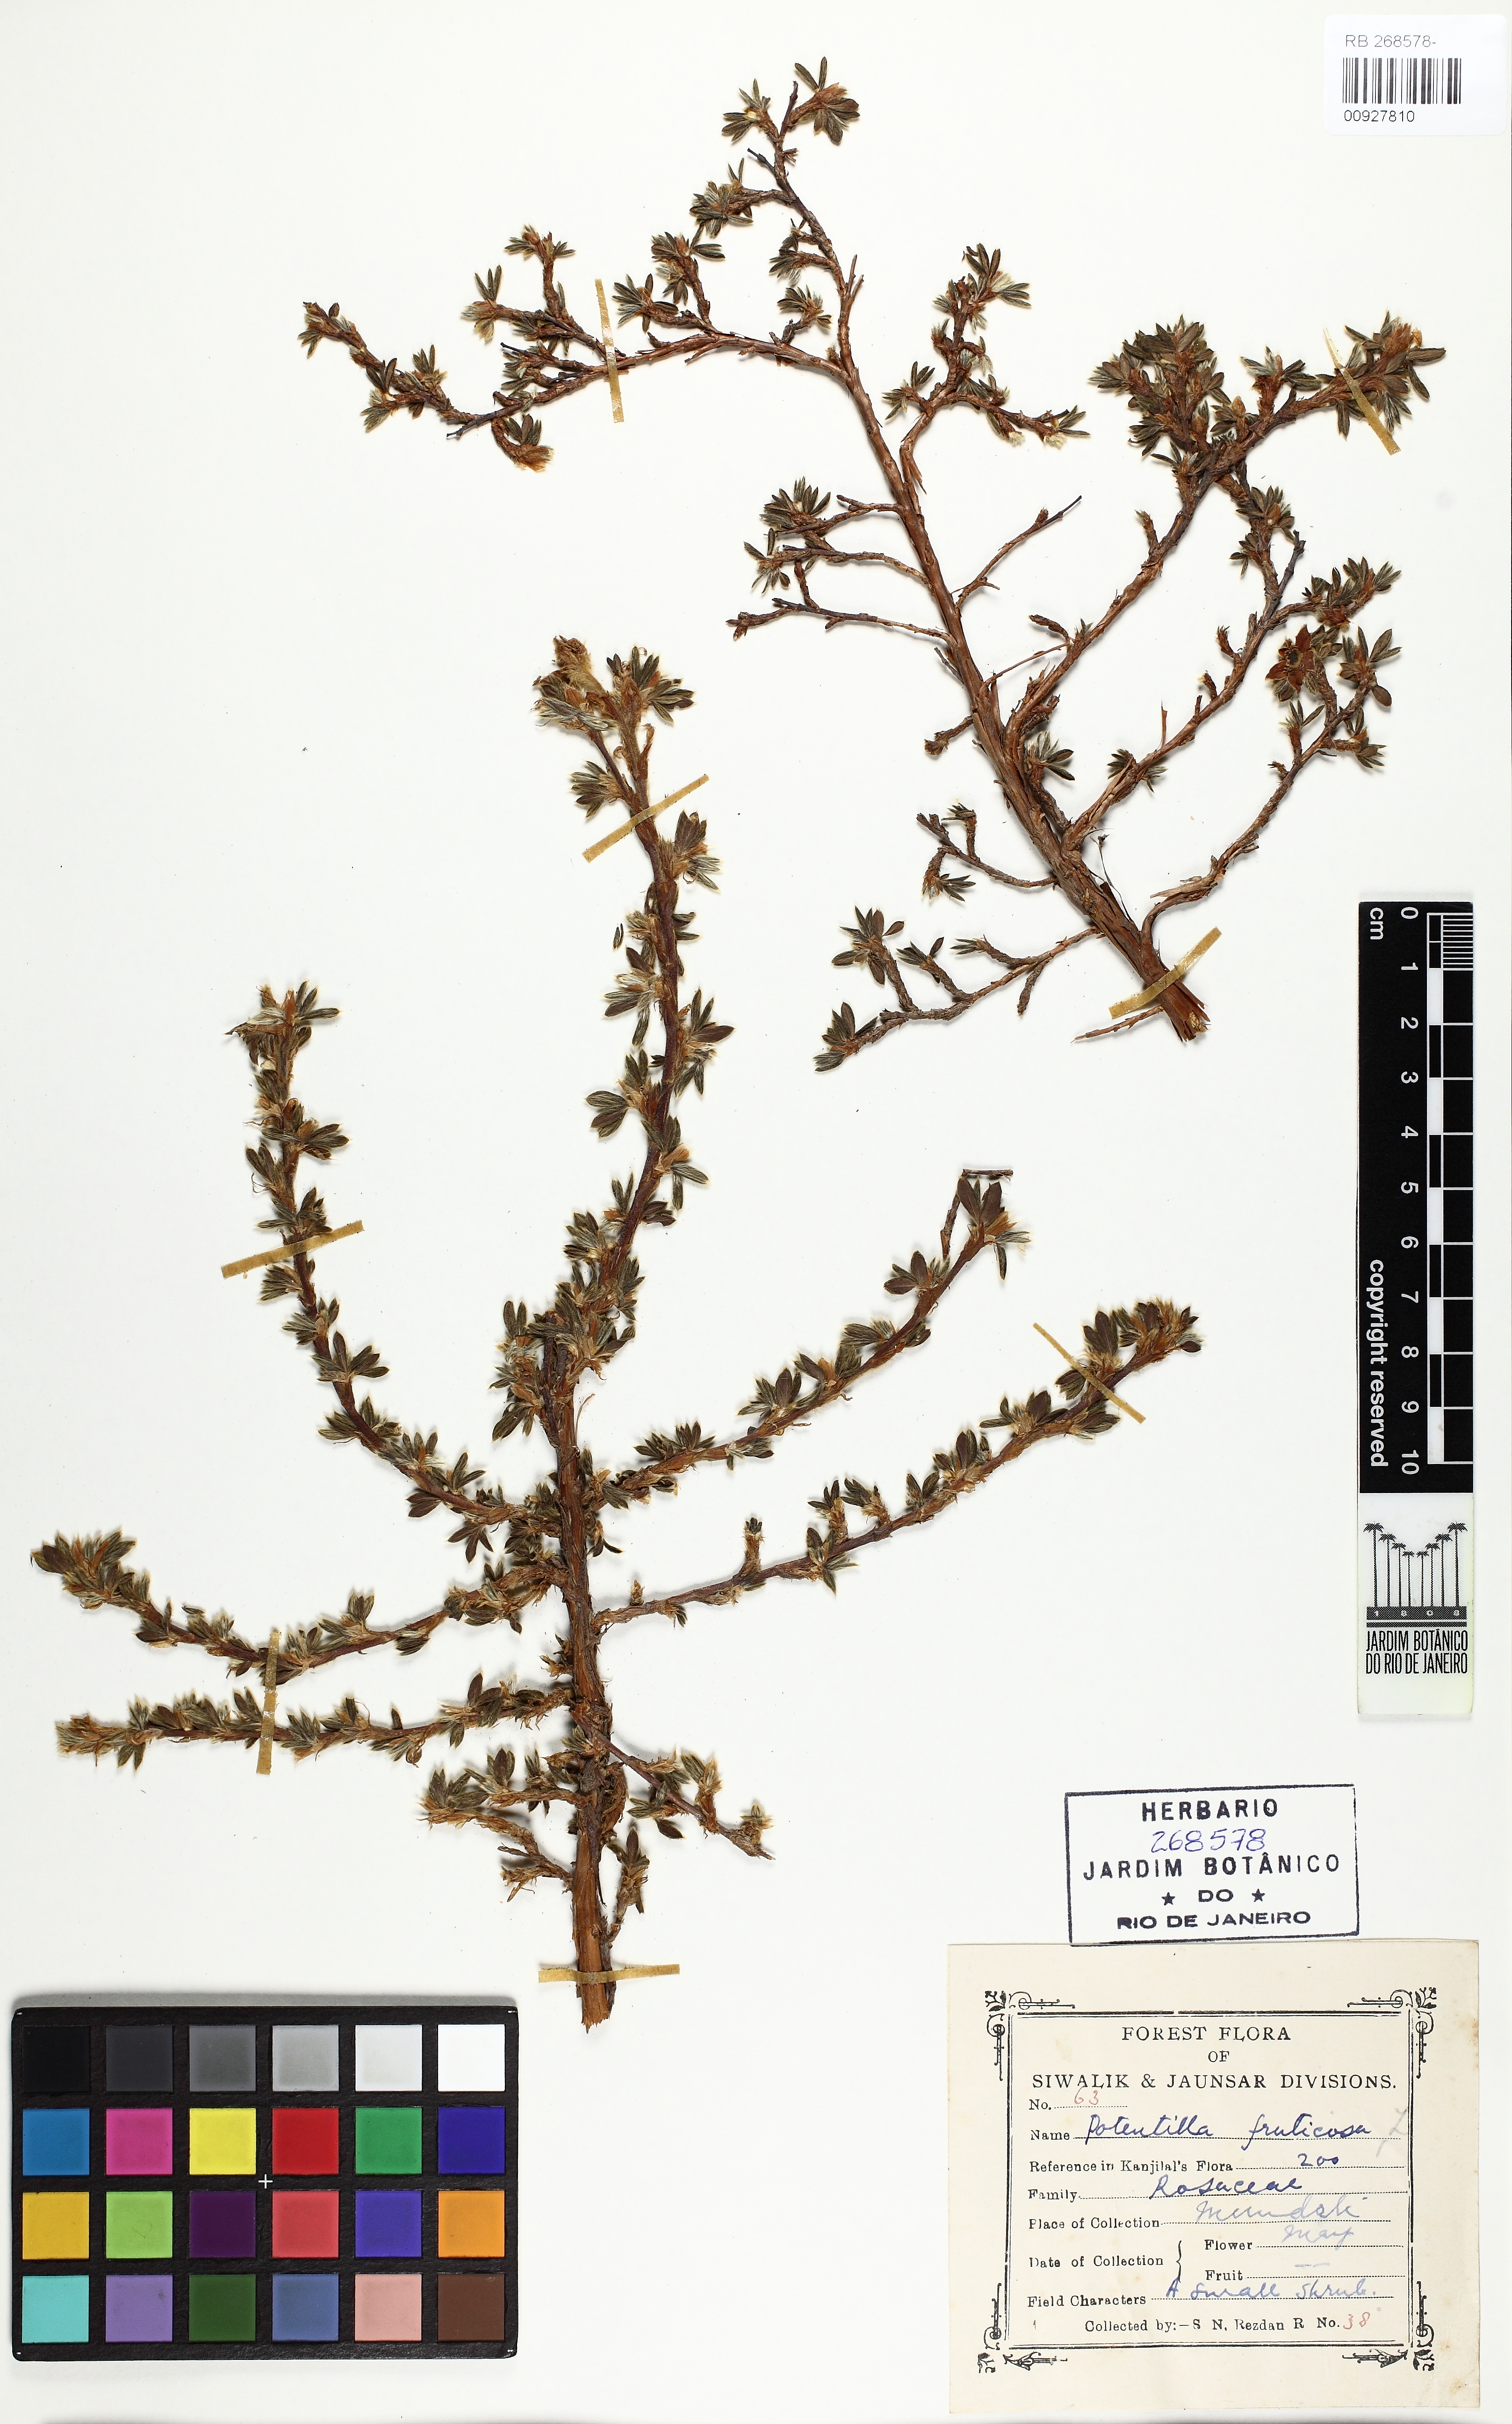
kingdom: Plantae
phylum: Tracheophyta
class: Magnoliopsida
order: Rosales
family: Rosaceae
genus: Dasiphora
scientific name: Dasiphora fruticosa
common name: Shrubby cinquefoil
